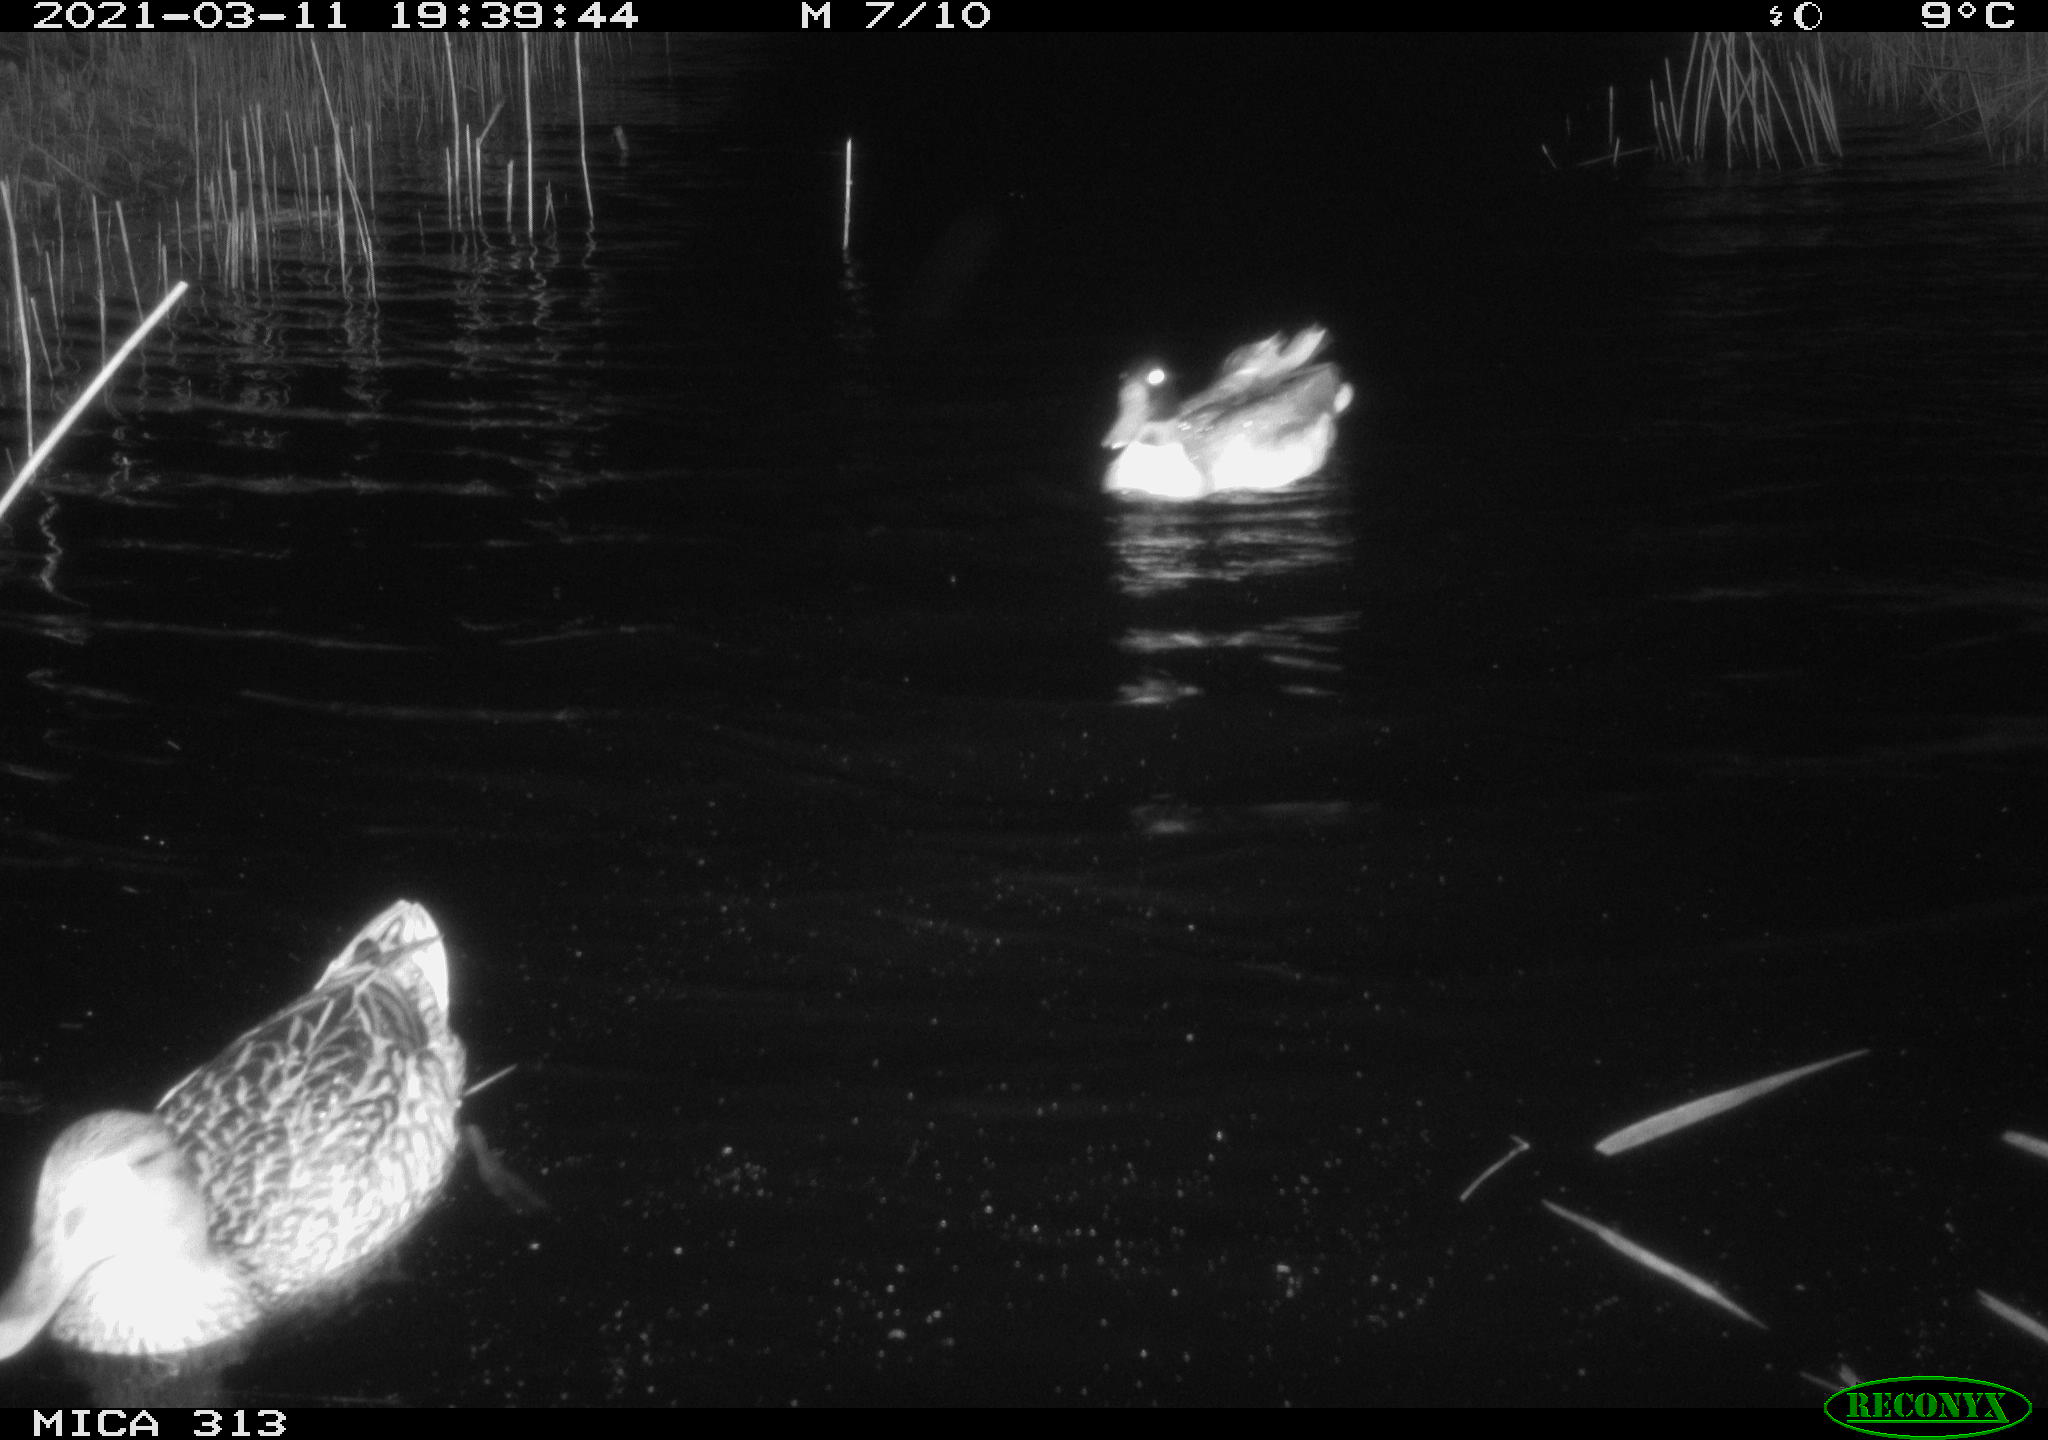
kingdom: Animalia
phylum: Chordata
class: Aves
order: Anseriformes
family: Anatidae
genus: Mareca
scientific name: Mareca strepera
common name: Gadwall
